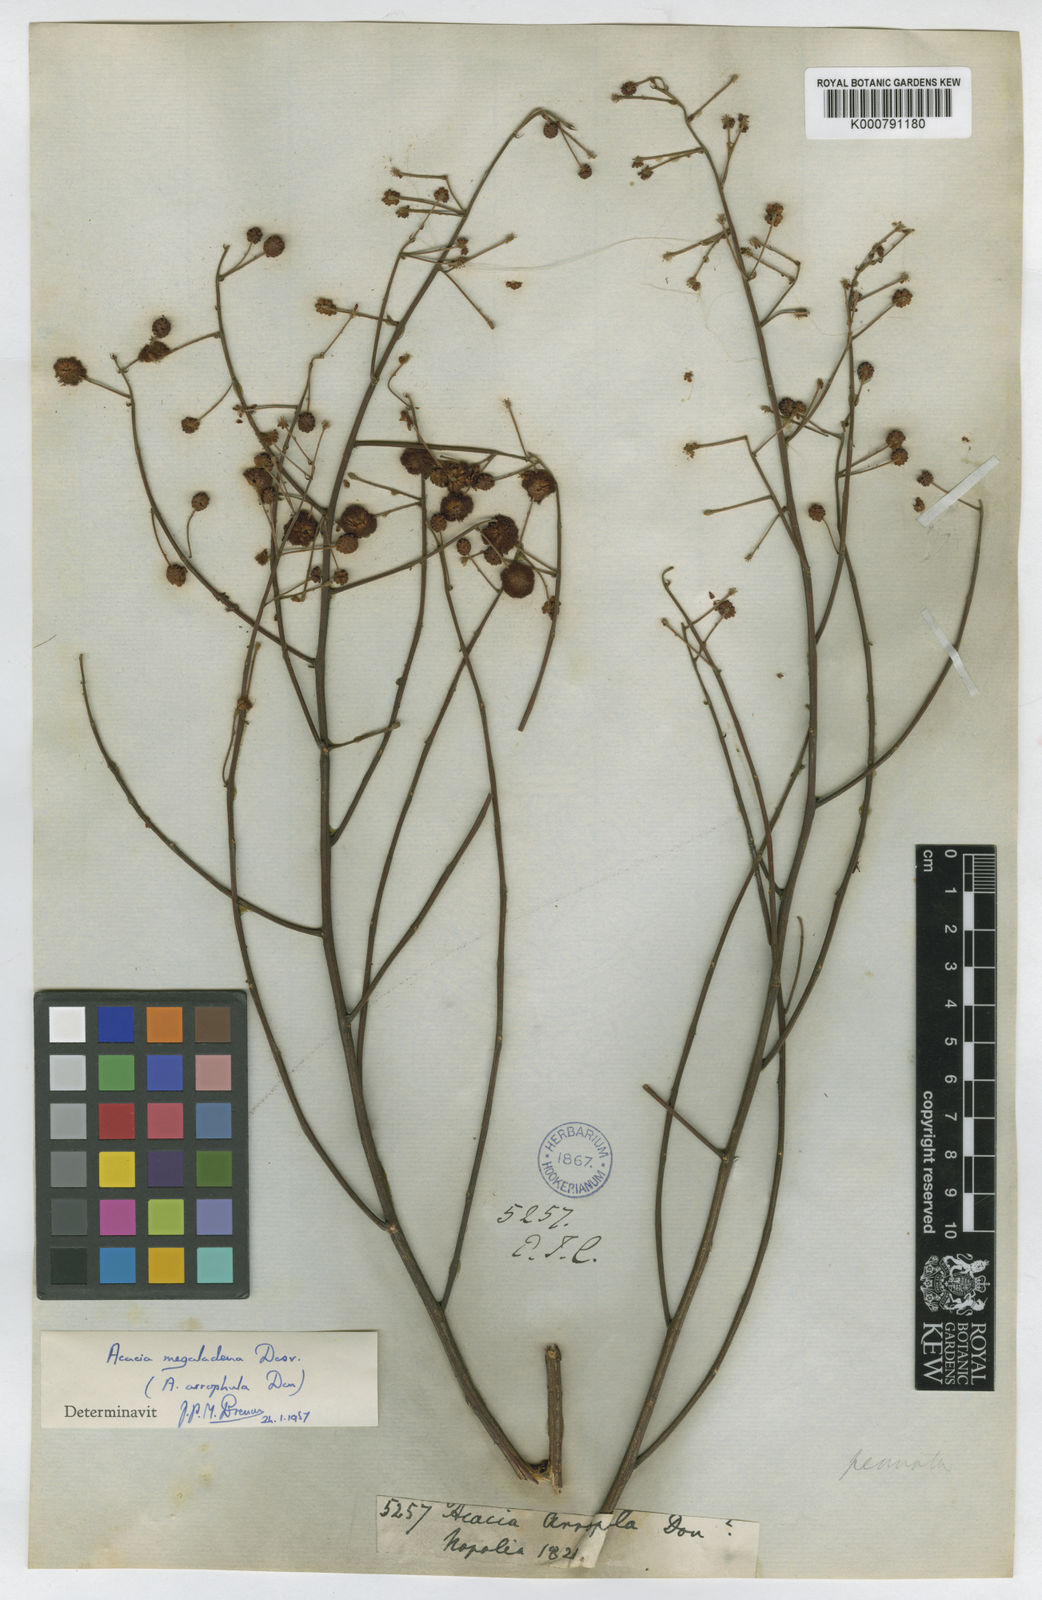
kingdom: Plantae
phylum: Tracheophyta
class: Magnoliopsida
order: Fabales
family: Fabaceae
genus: Senegalia
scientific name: Senegalia megaladena
